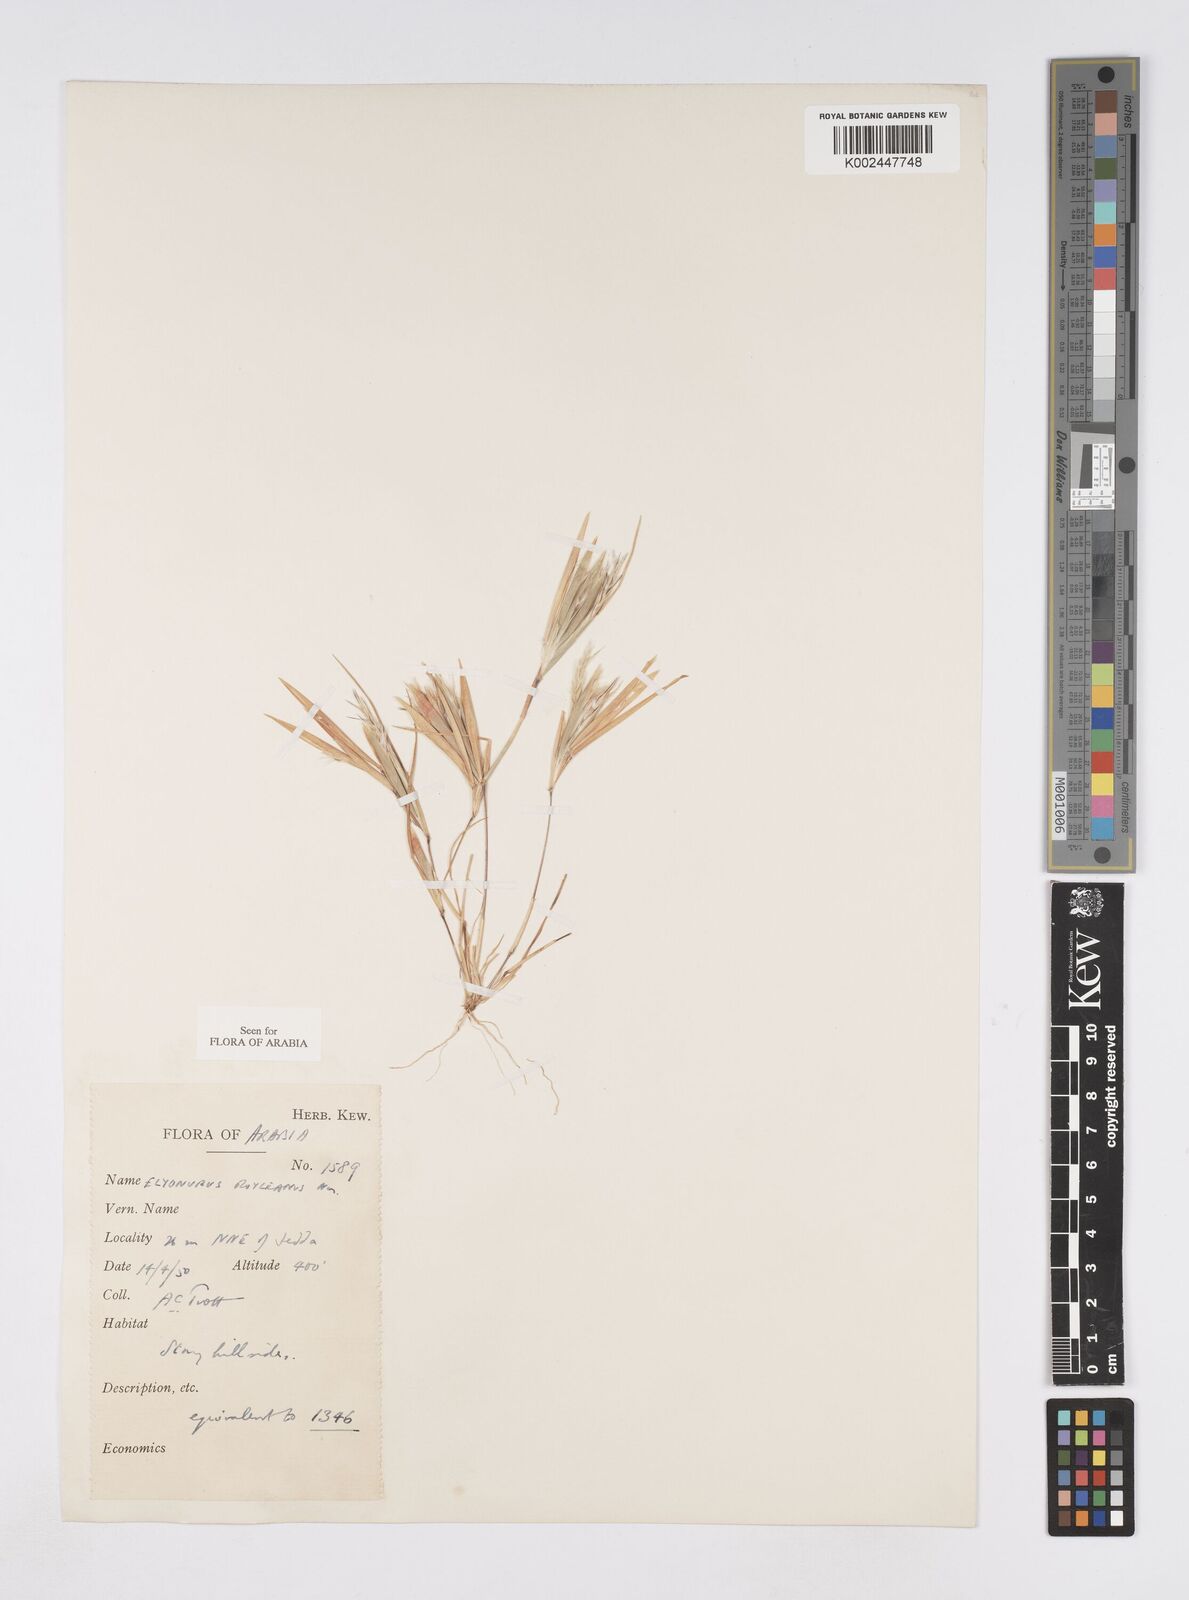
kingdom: Plantae
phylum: Tracheophyta
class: Liliopsida
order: Poales
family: Poaceae
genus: Elionurus
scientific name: Elionurus royleanus
